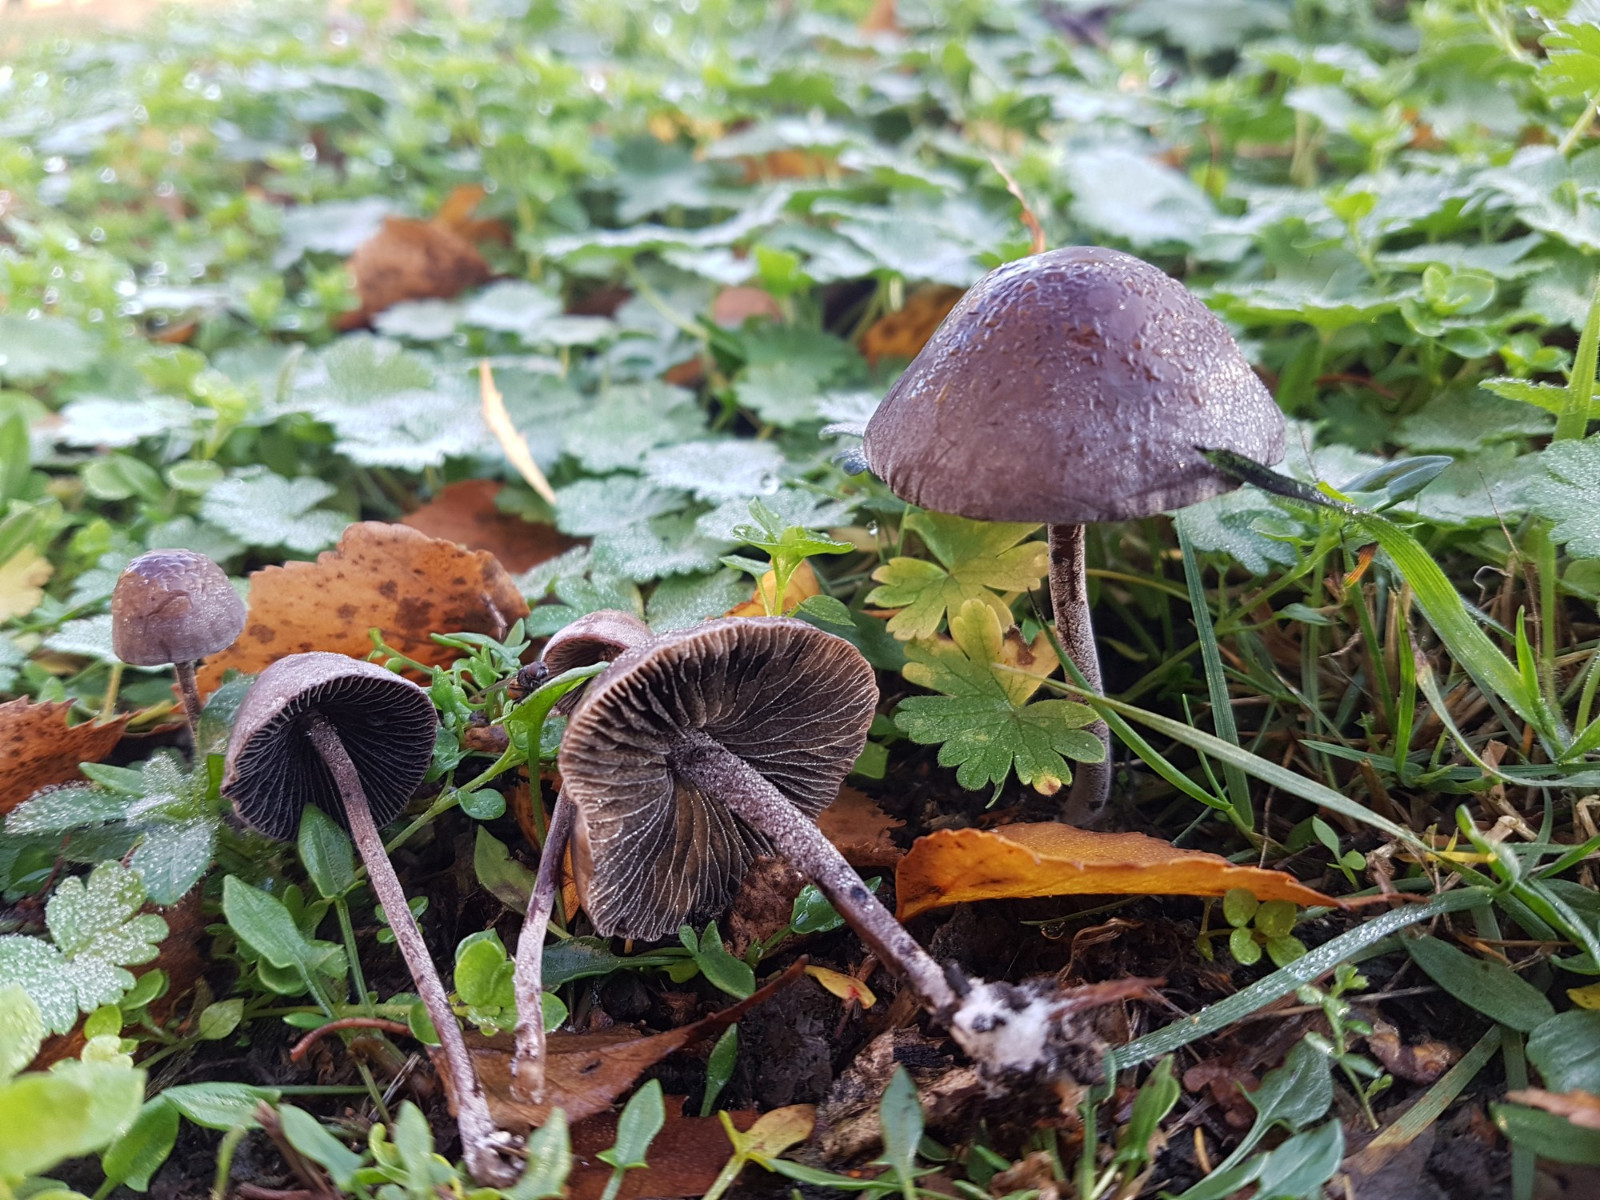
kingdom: Fungi
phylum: Basidiomycota
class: Agaricomycetes
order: Agaricales
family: Bolbitiaceae
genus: Panaeolus
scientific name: Panaeolus acuminatus
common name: høj glanshat
